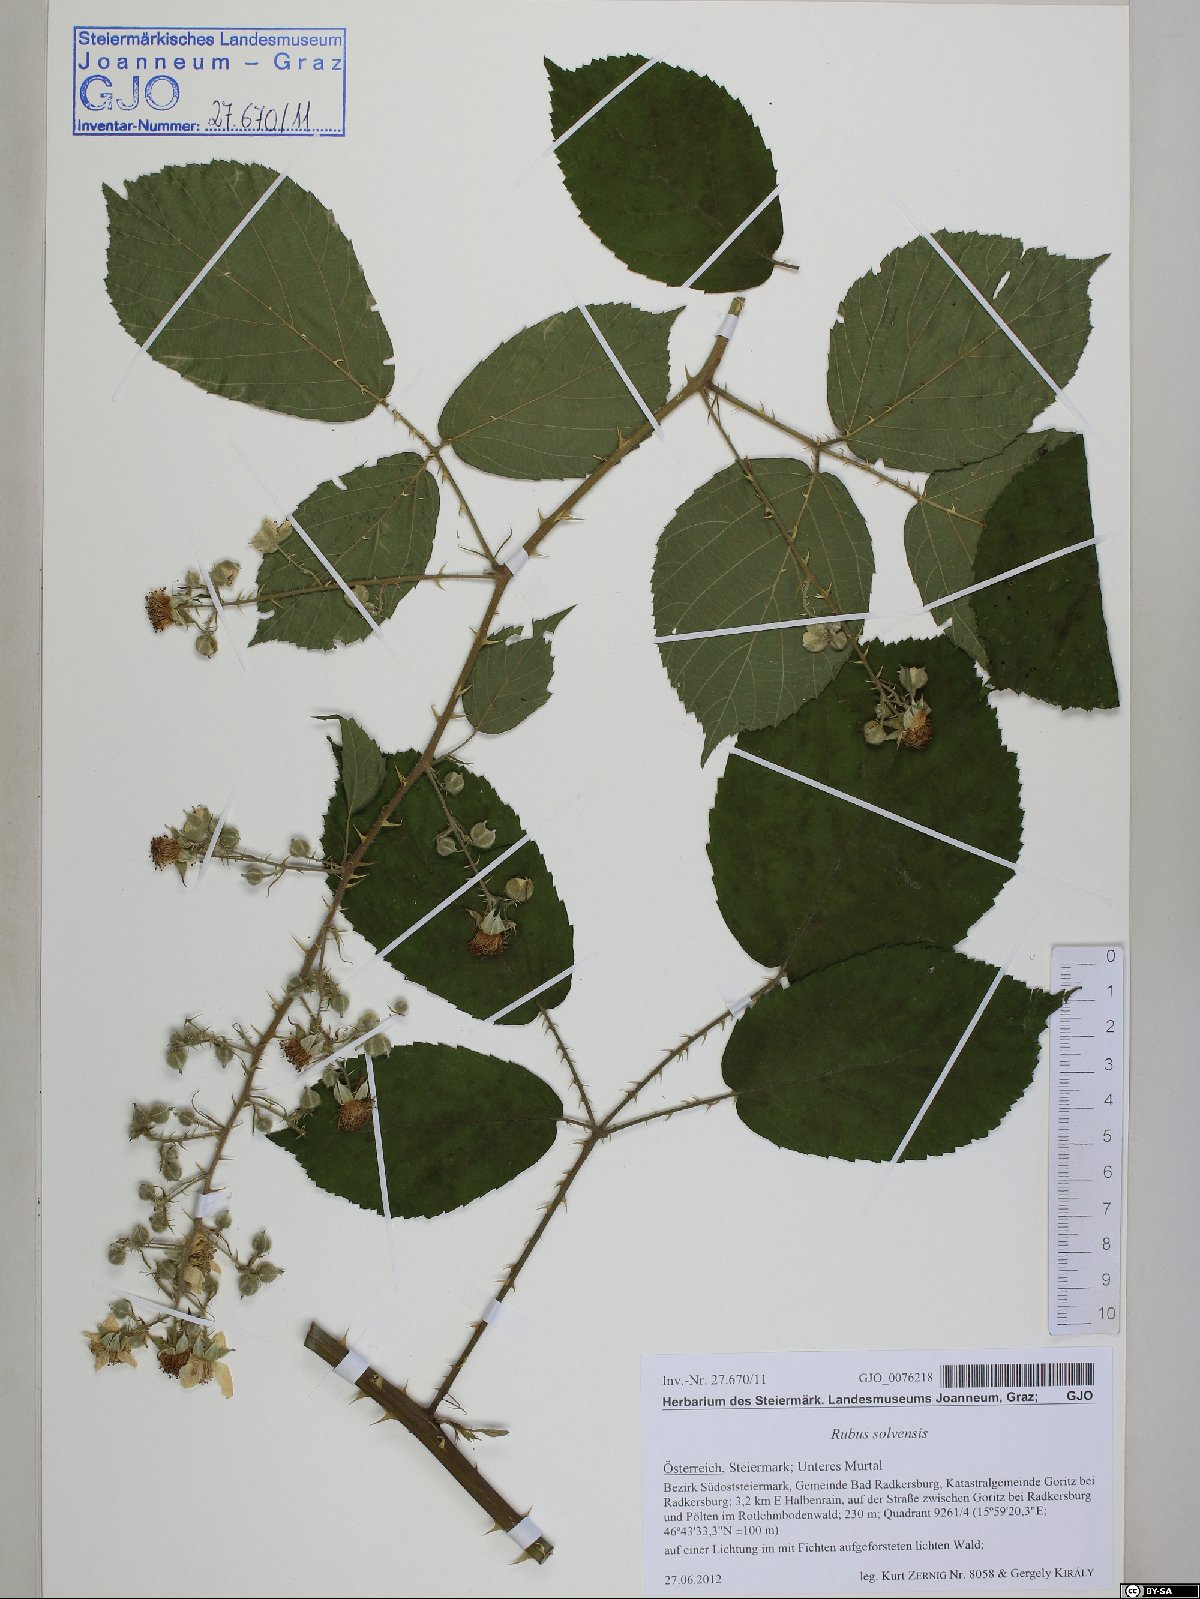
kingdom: Plantae
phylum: Tracheophyta
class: Magnoliopsida
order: Rosales
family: Rosaceae
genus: Rubus
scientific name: Rubus solvensis
